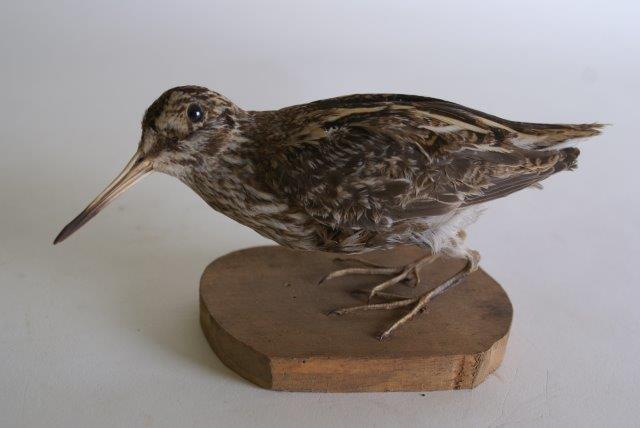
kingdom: Animalia
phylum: Chordata
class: Aves
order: Charadriiformes
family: Scolopacidae
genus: Lymnocryptes
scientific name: Lymnocryptes minimus
